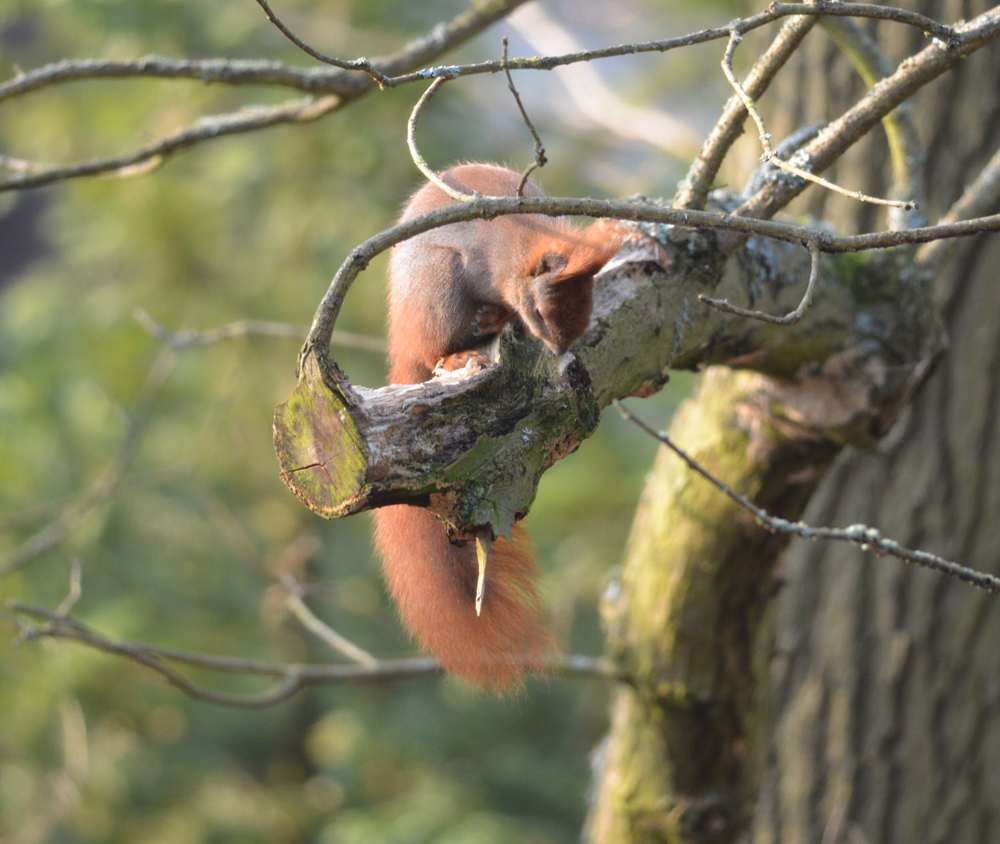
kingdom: Animalia
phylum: Chordata
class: Mammalia
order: Rodentia
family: Sciuridae
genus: Sciurus
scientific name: Sciurus vulgaris
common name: Eurasian red squirrel
